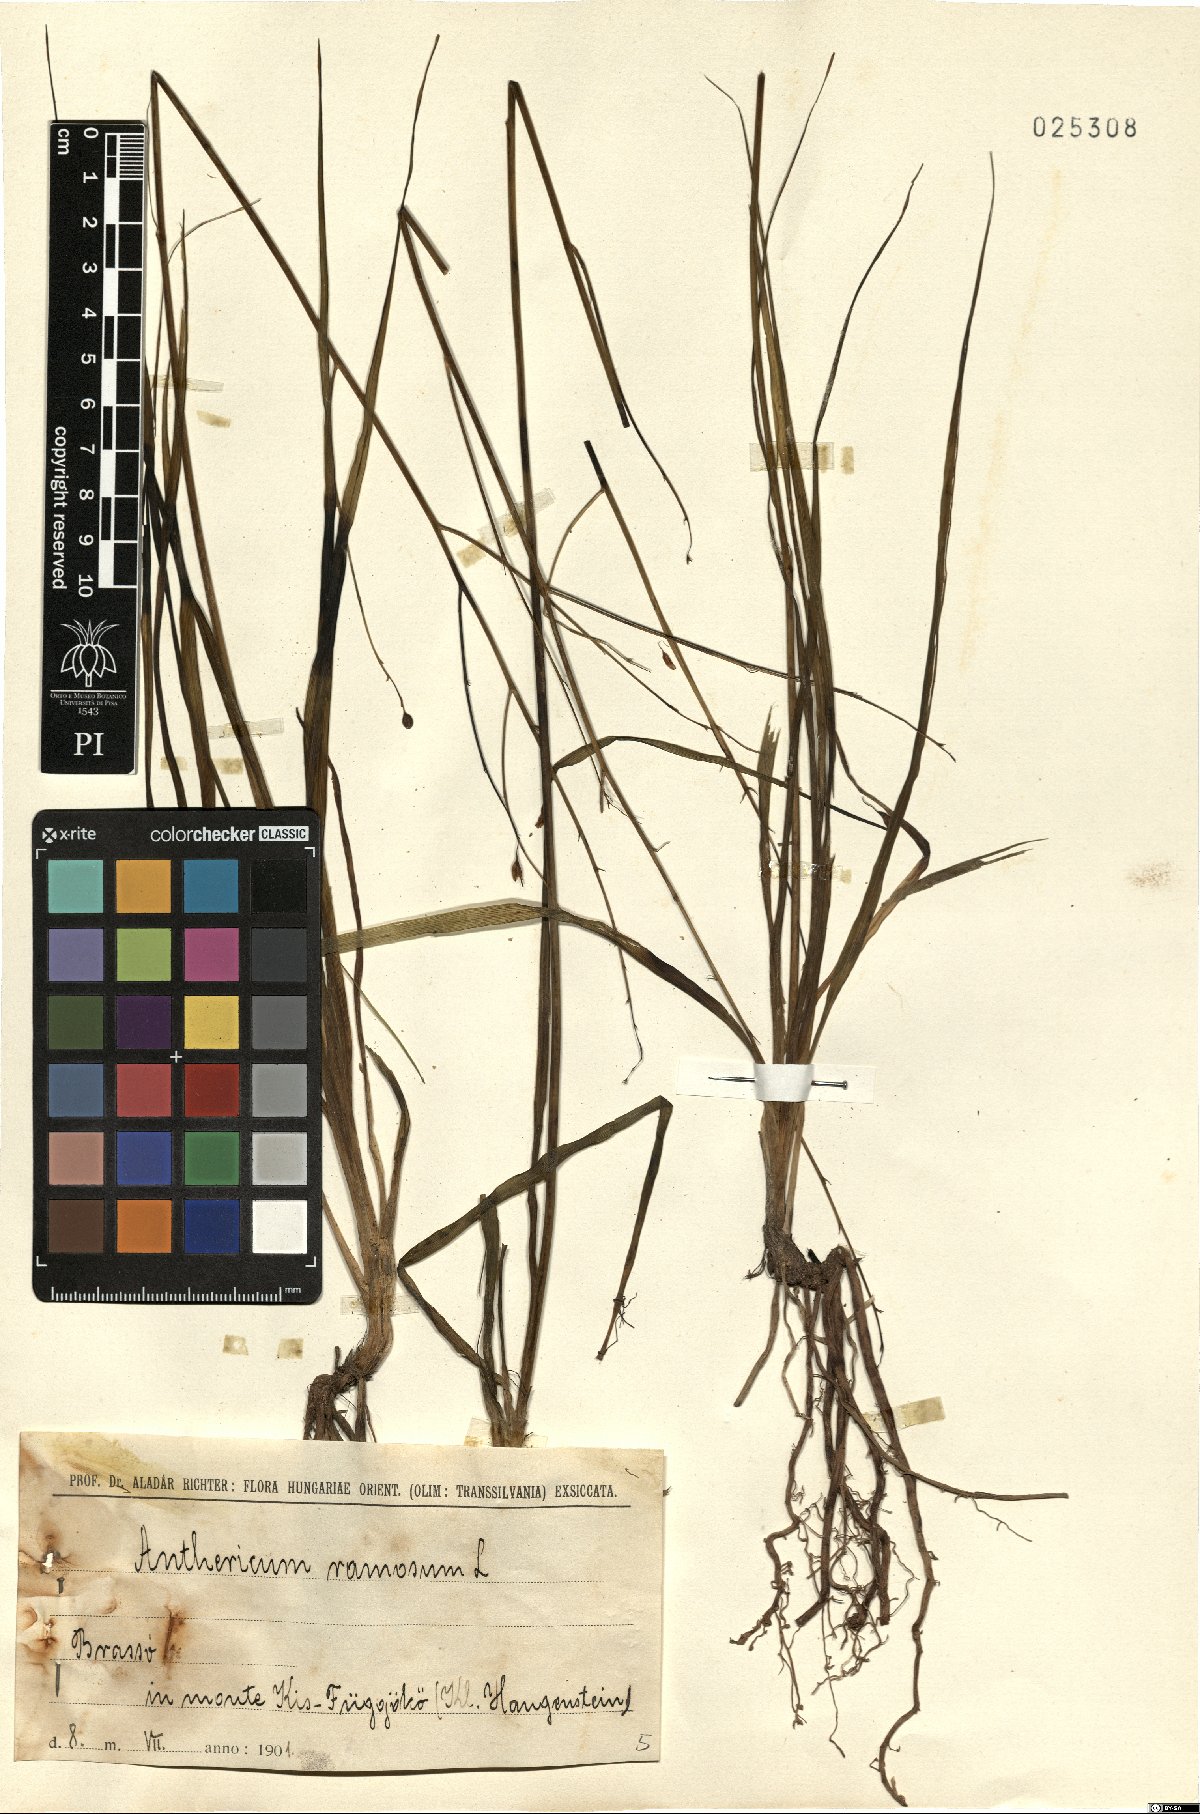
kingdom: Plantae
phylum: Tracheophyta
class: Liliopsida
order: Asparagales
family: Asparagaceae
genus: Anthericum
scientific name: Anthericum ramosum
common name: Branched st. bernard's-lily
